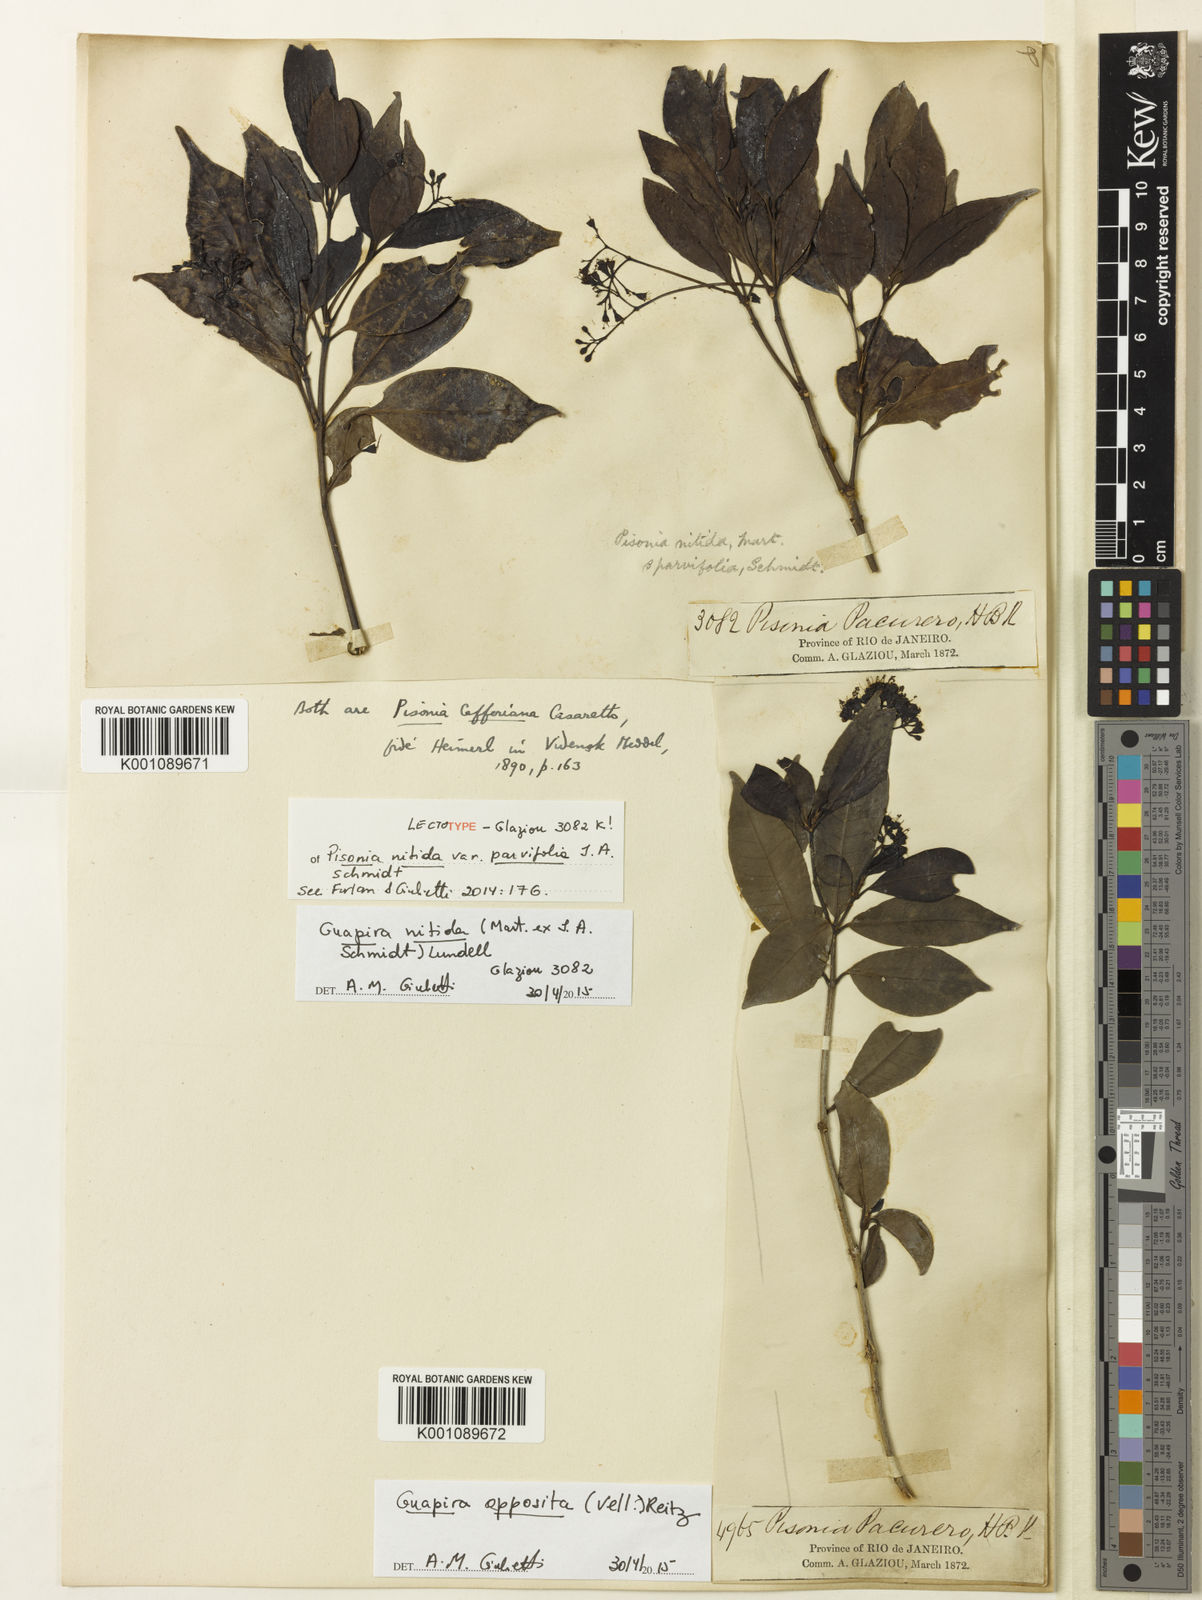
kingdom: Plantae
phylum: Tracheophyta
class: Magnoliopsida
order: Caryophyllales
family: Nyctaginaceae
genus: Guapira
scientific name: Guapira nitida
